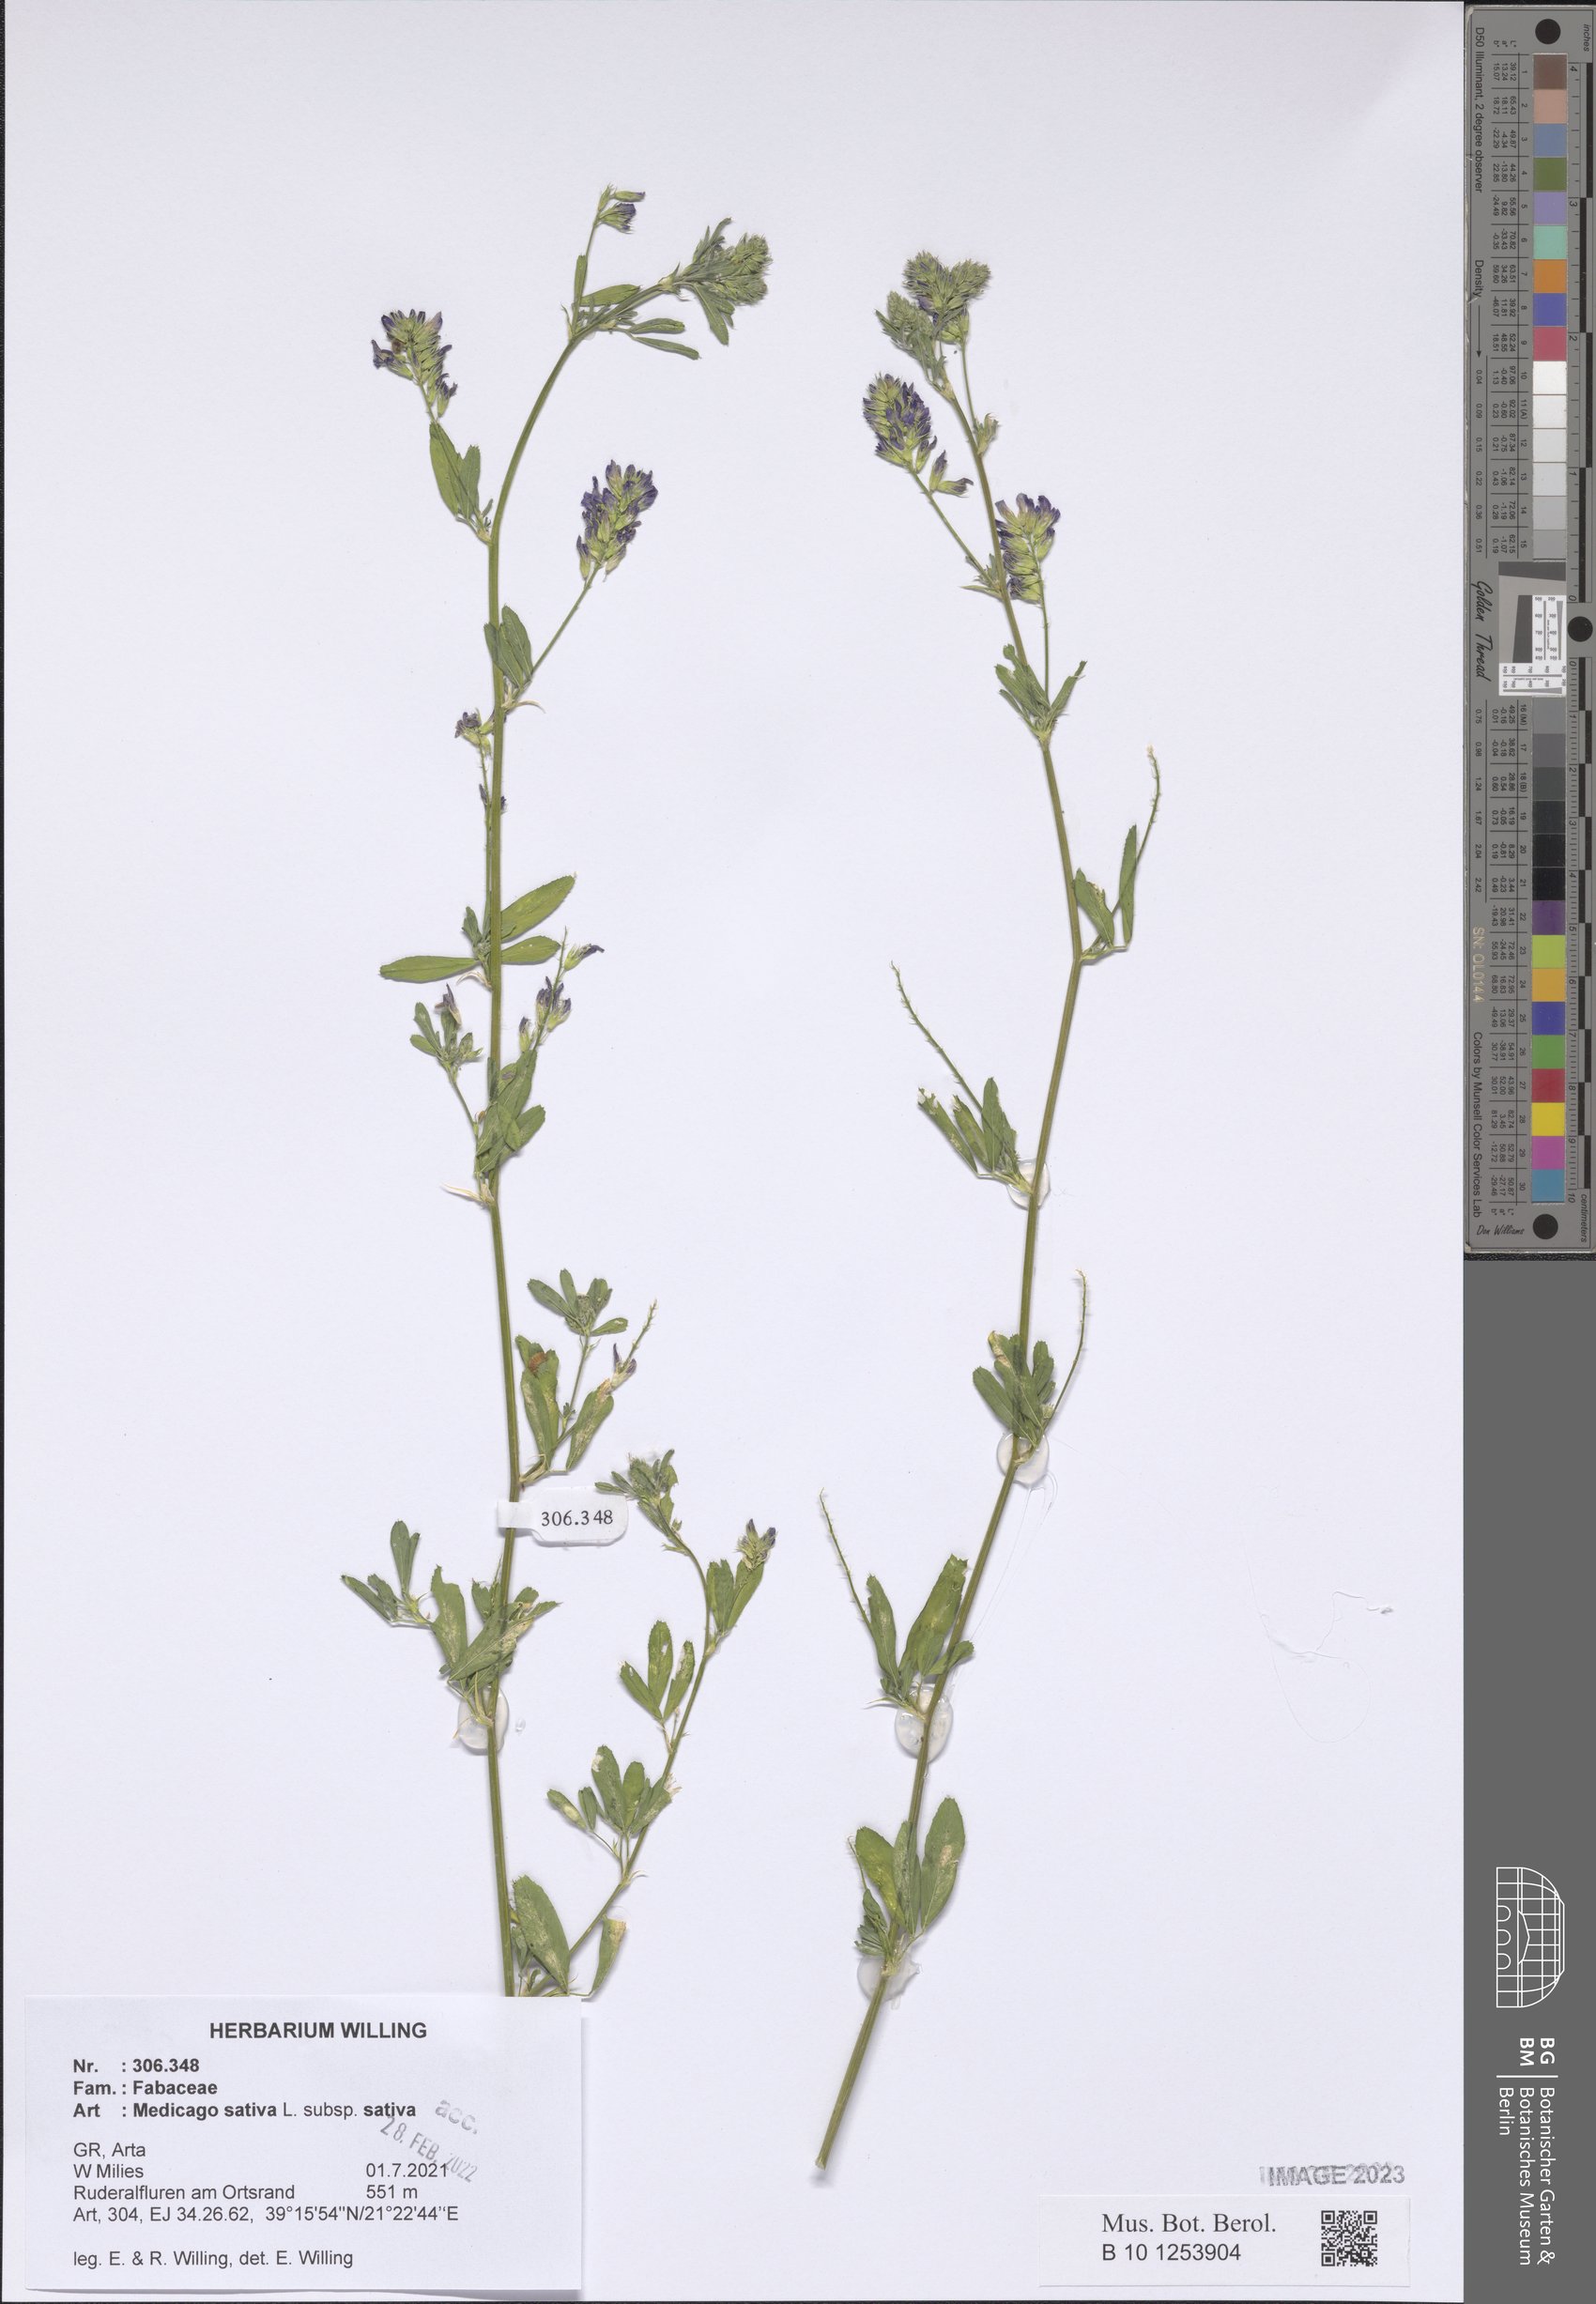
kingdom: Plantae
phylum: Tracheophyta
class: Magnoliopsida
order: Fabales
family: Fabaceae
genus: Medicago
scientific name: Medicago sativa
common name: Alfalfa
